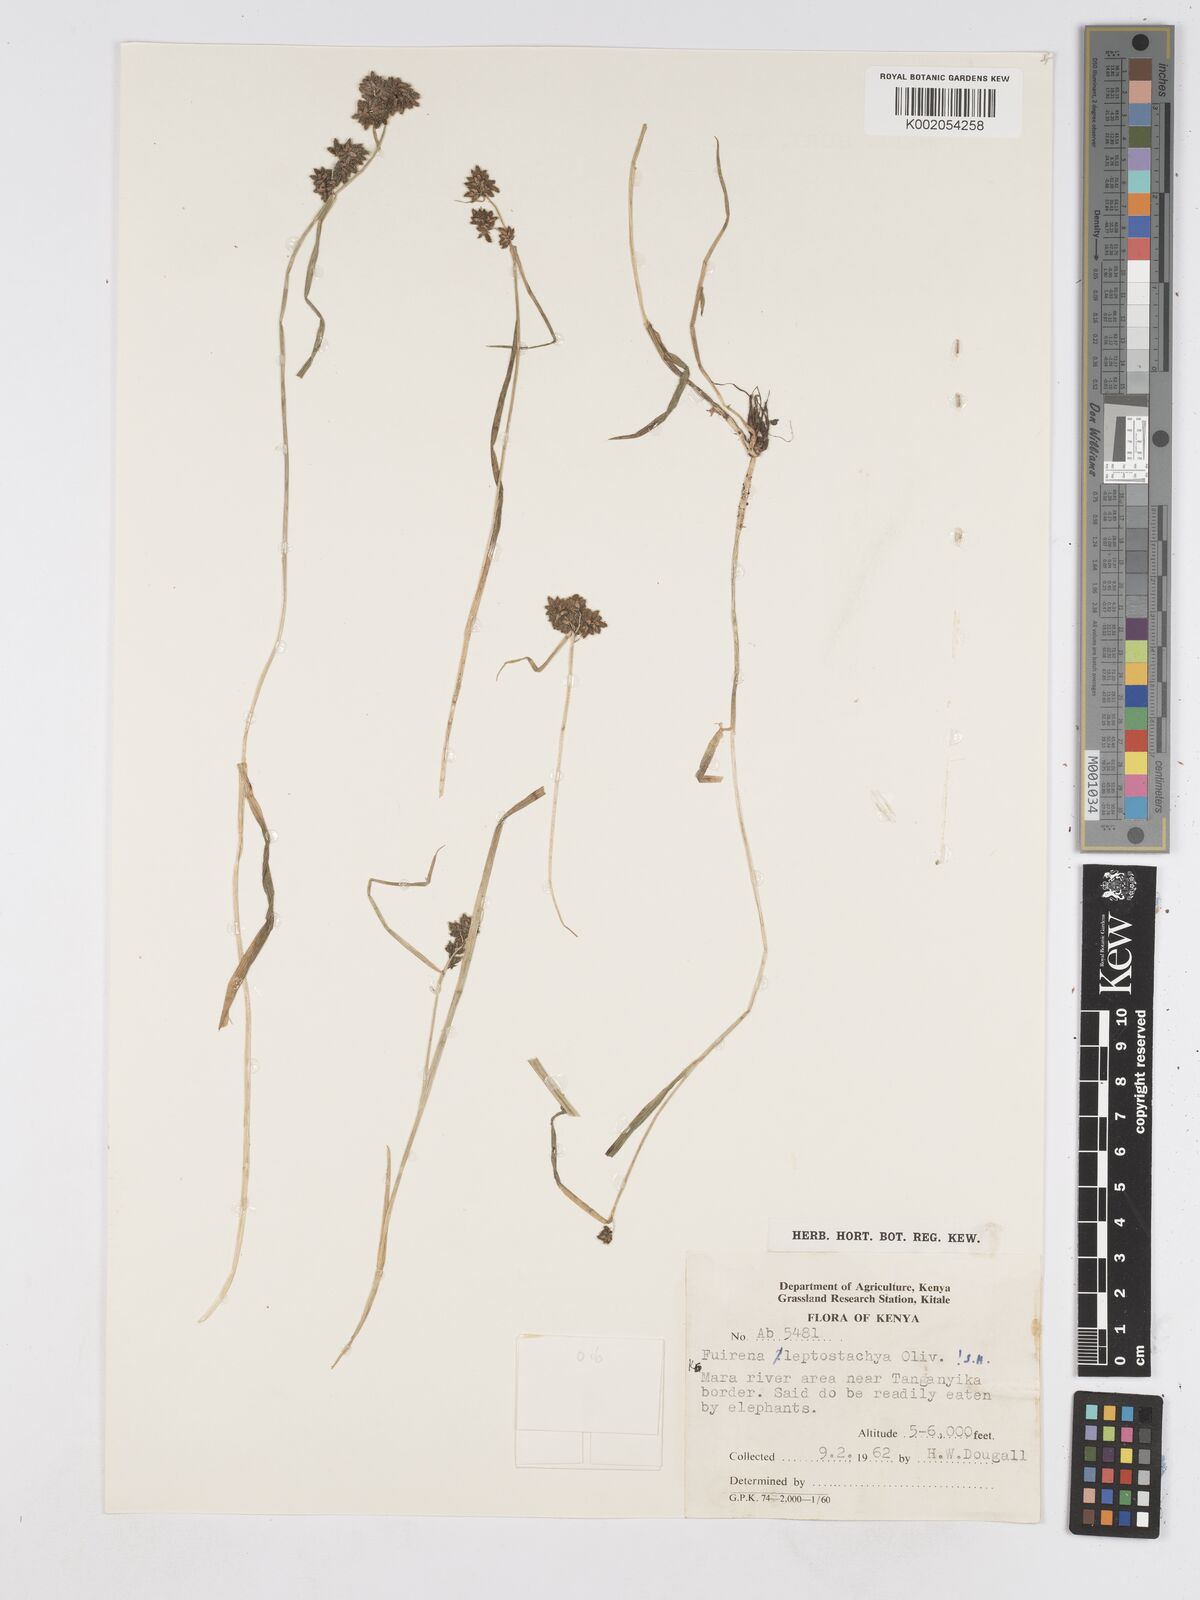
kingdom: Plantae
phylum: Tracheophyta
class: Liliopsida
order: Poales
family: Cyperaceae
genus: Fuirena
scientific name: Fuirena leptostachya
